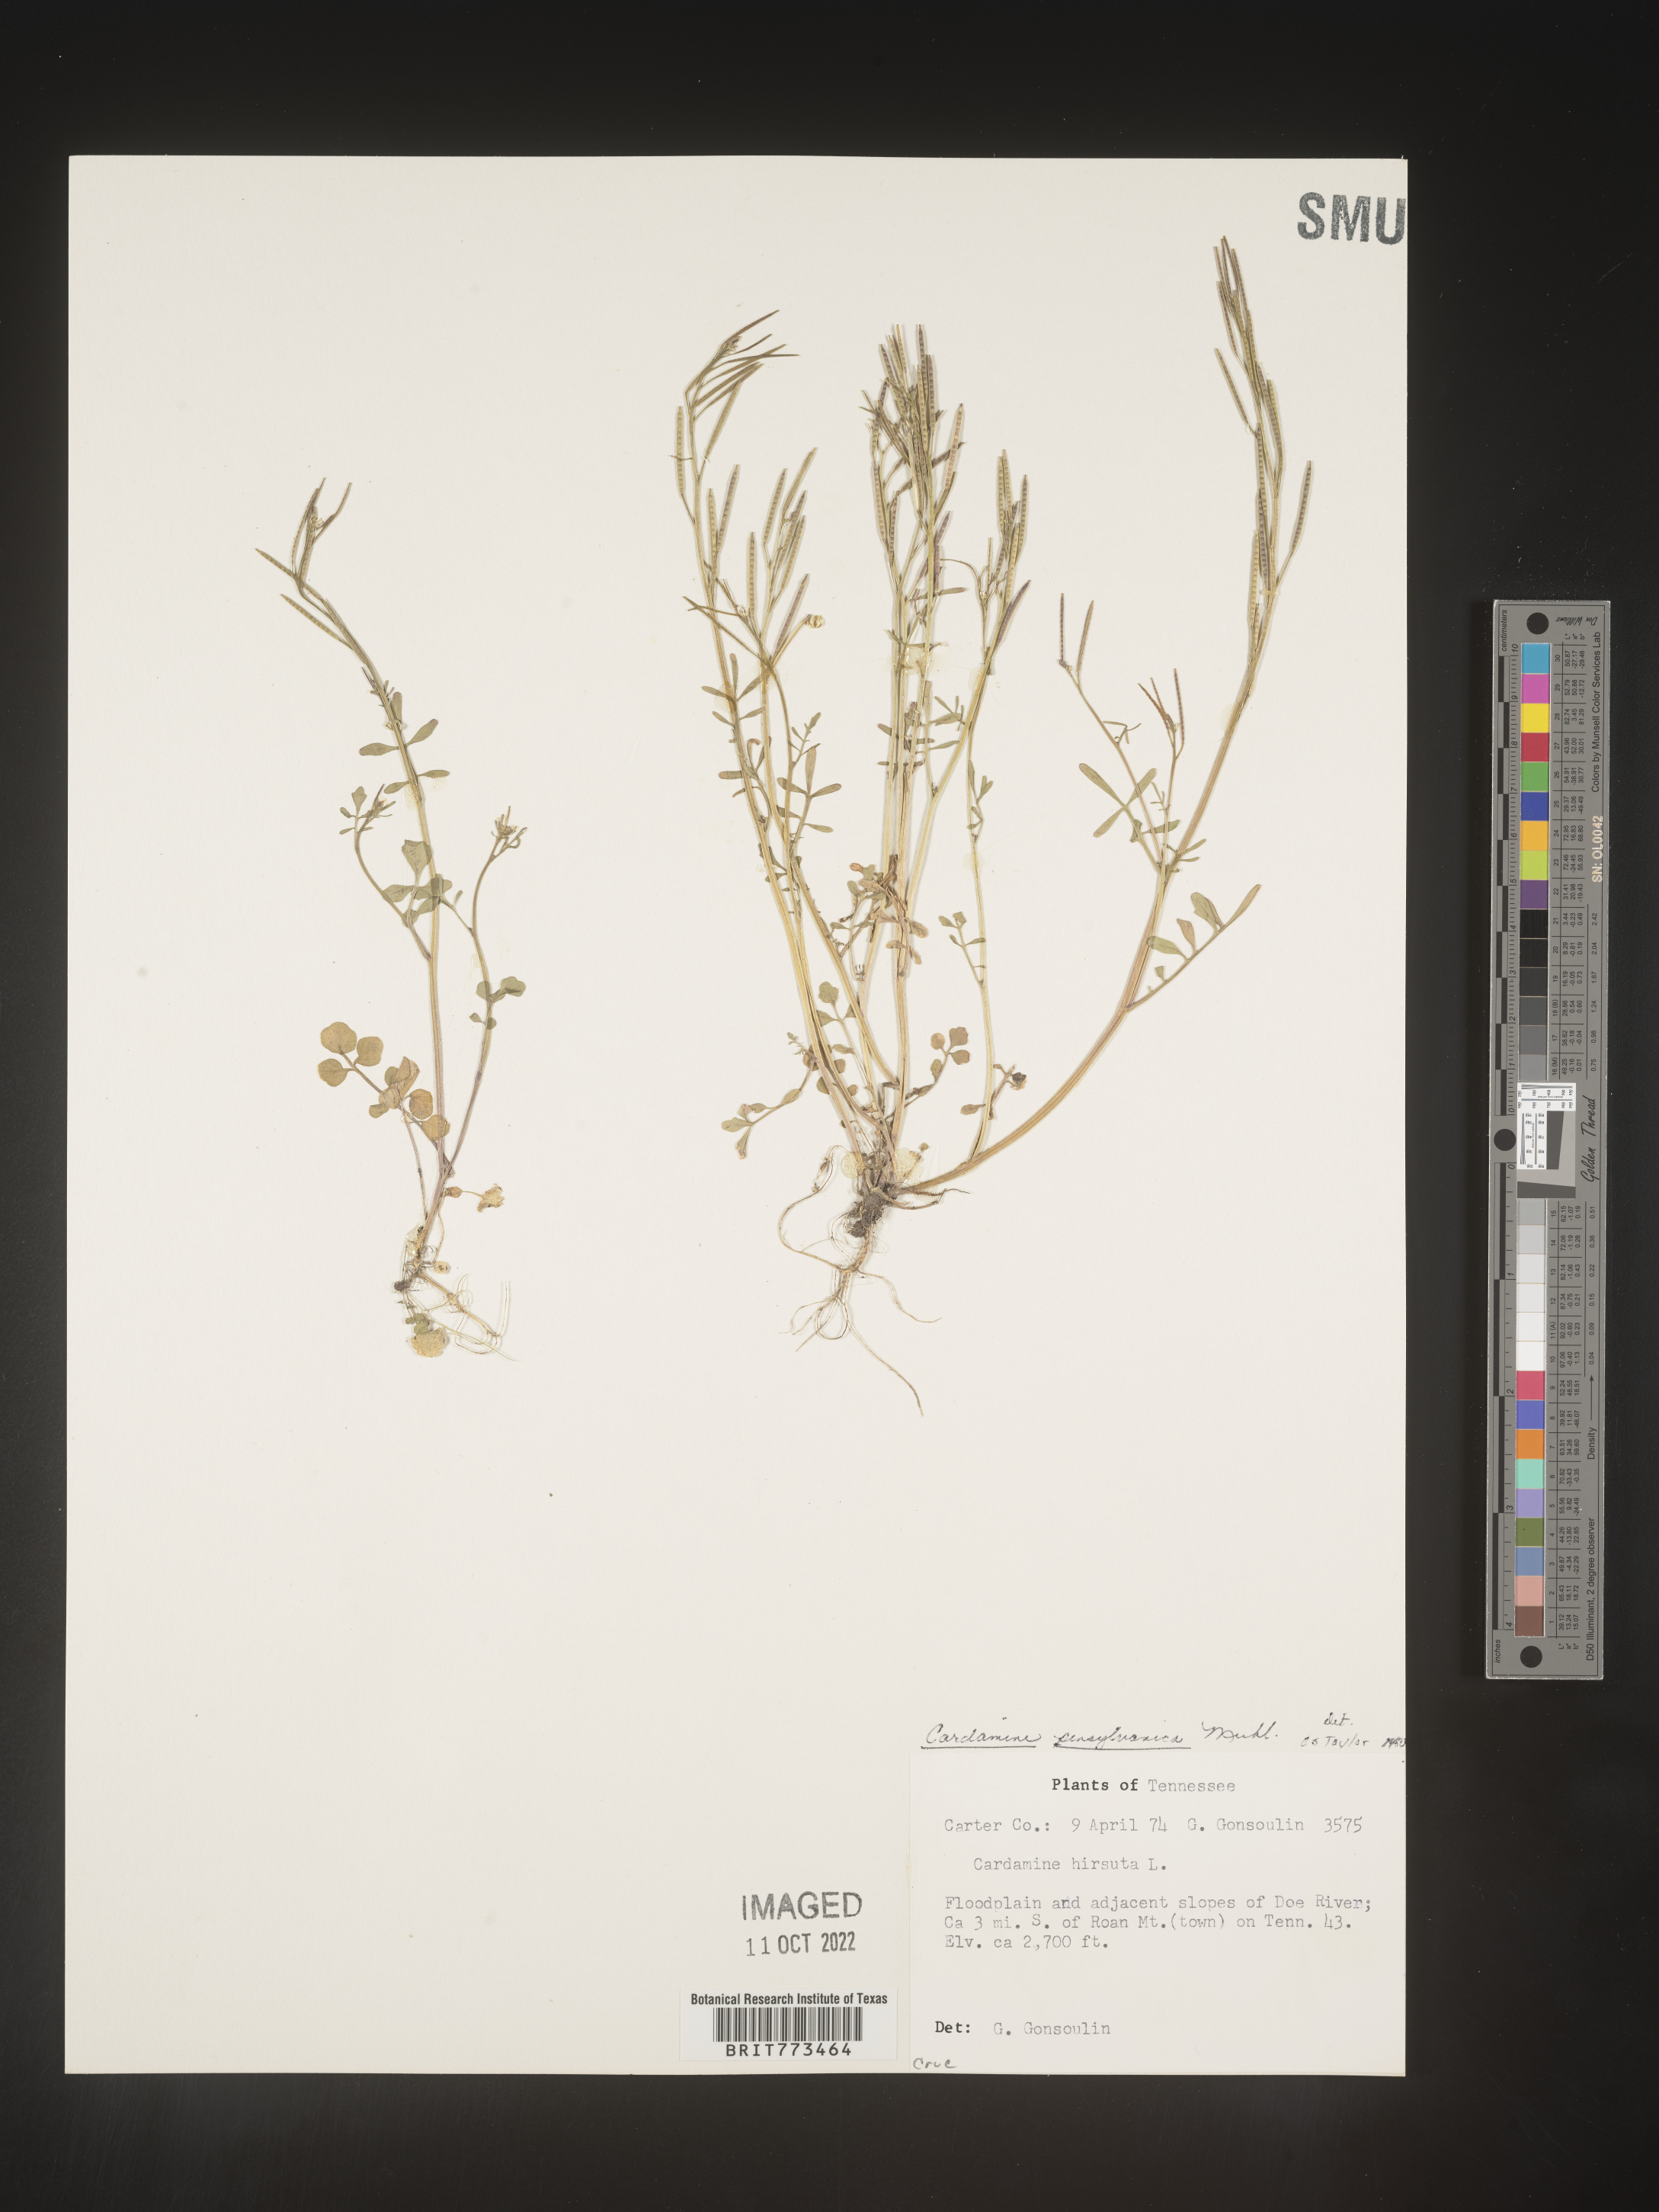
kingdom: Plantae
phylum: Tracheophyta
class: Magnoliopsida
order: Brassicales
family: Brassicaceae
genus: Cardamine
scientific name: Cardamine pensylvanica
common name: Pennsylvania bittercress
